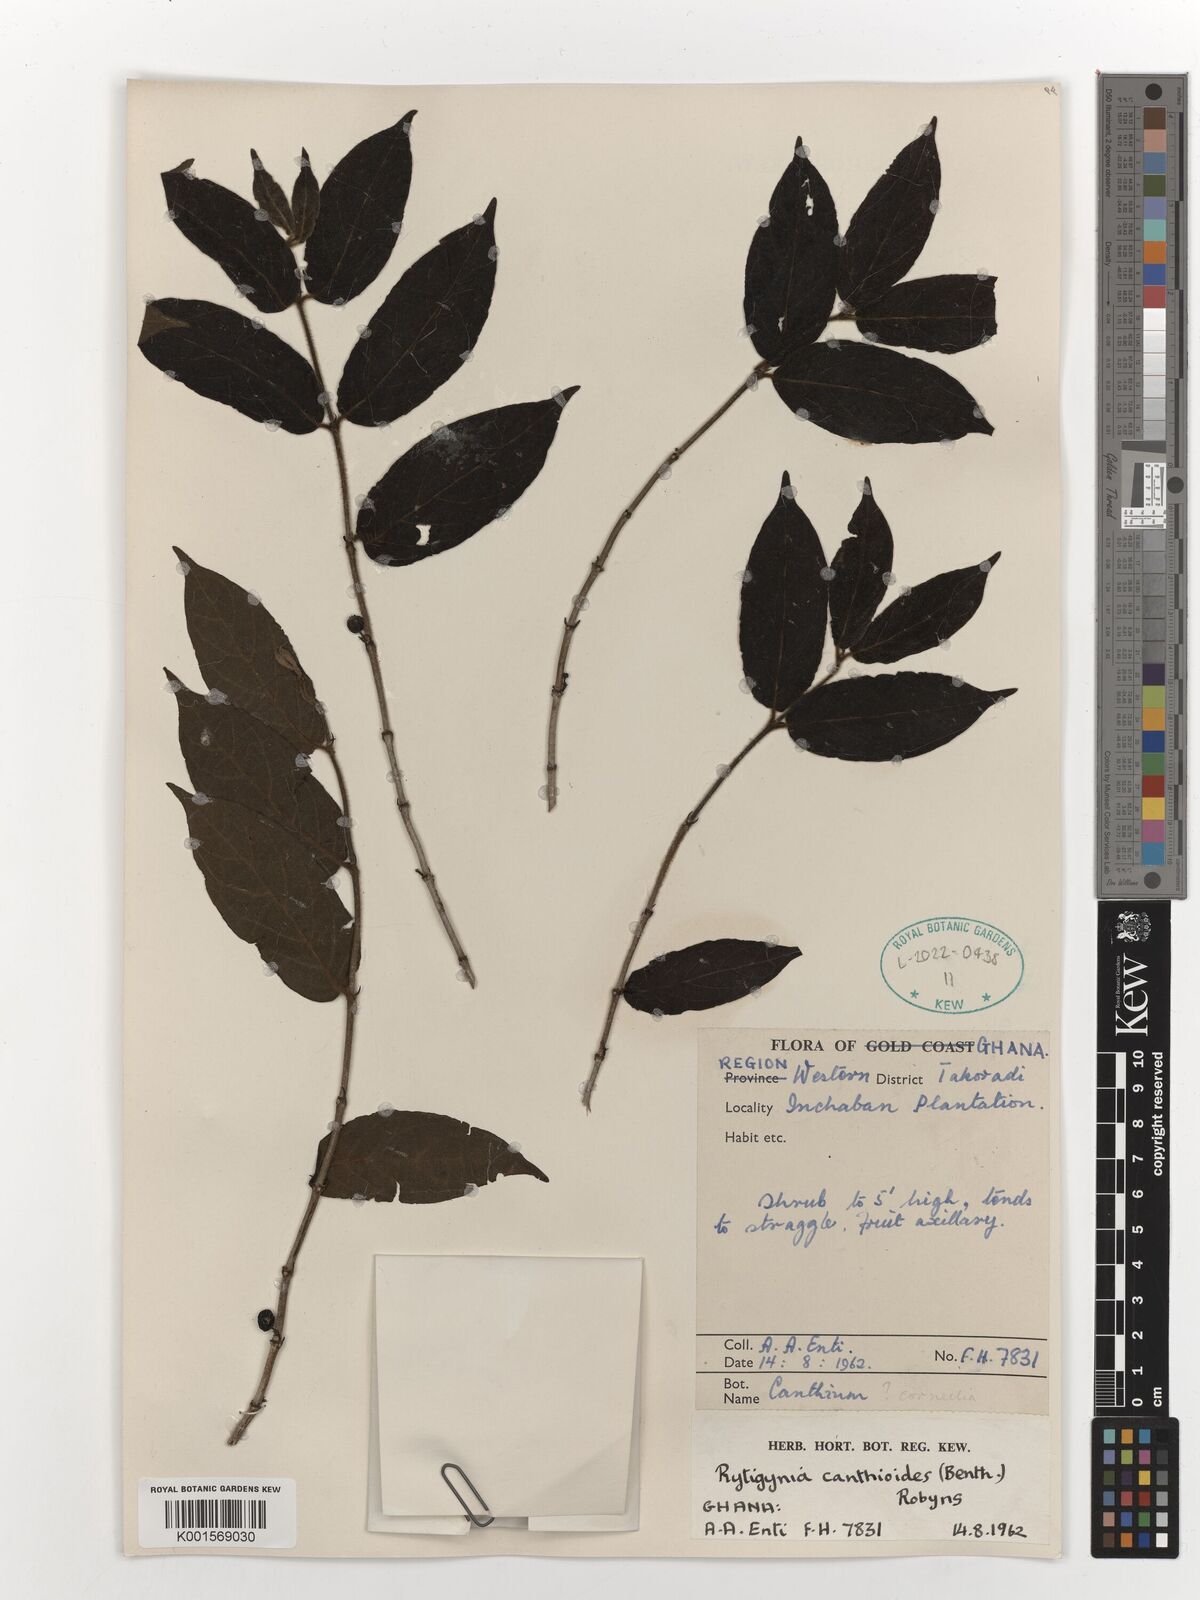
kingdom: Plantae
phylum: Tracheophyta
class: Magnoliopsida
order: Gentianales
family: Rubiaceae
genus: Rytigynia
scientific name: Rytigynia canthioides
